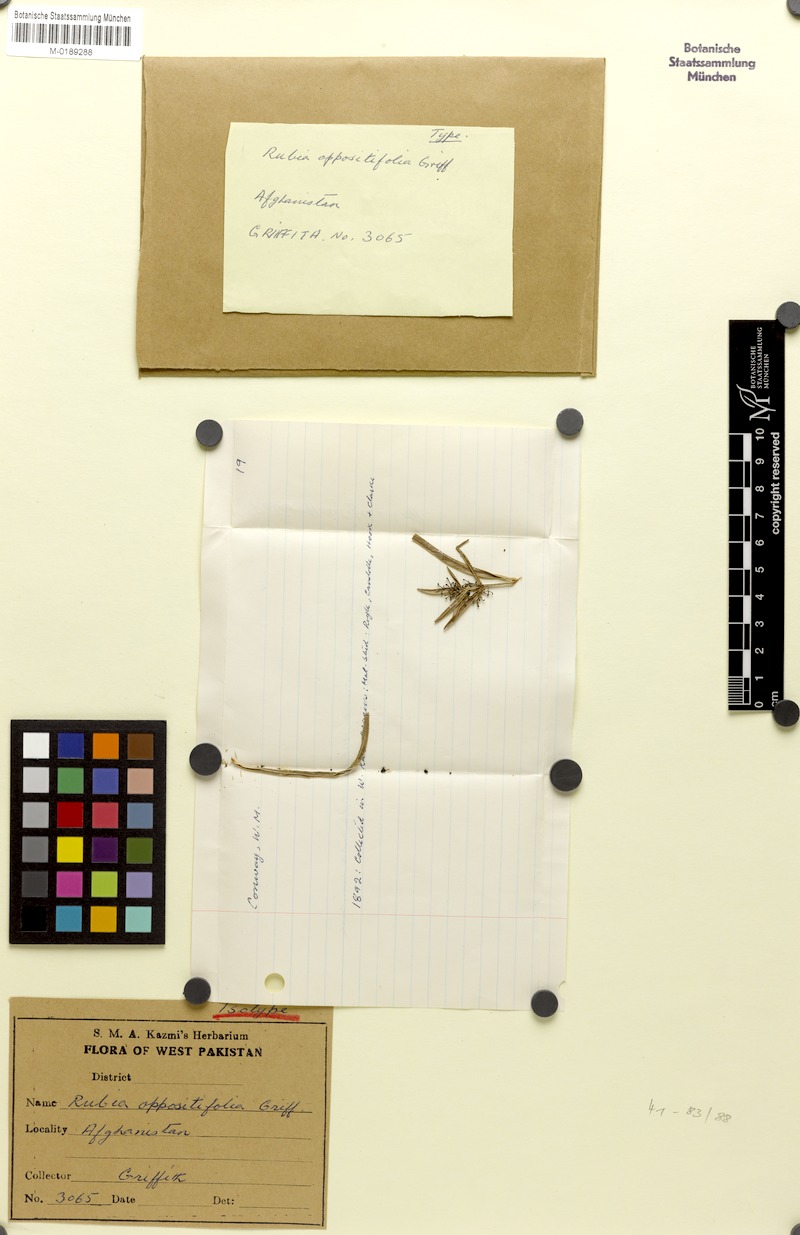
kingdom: Plantae
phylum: Tracheophyta
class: Magnoliopsida
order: Gentianales
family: Rubiaceae
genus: Rubia
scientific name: Rubia oppositifolia
